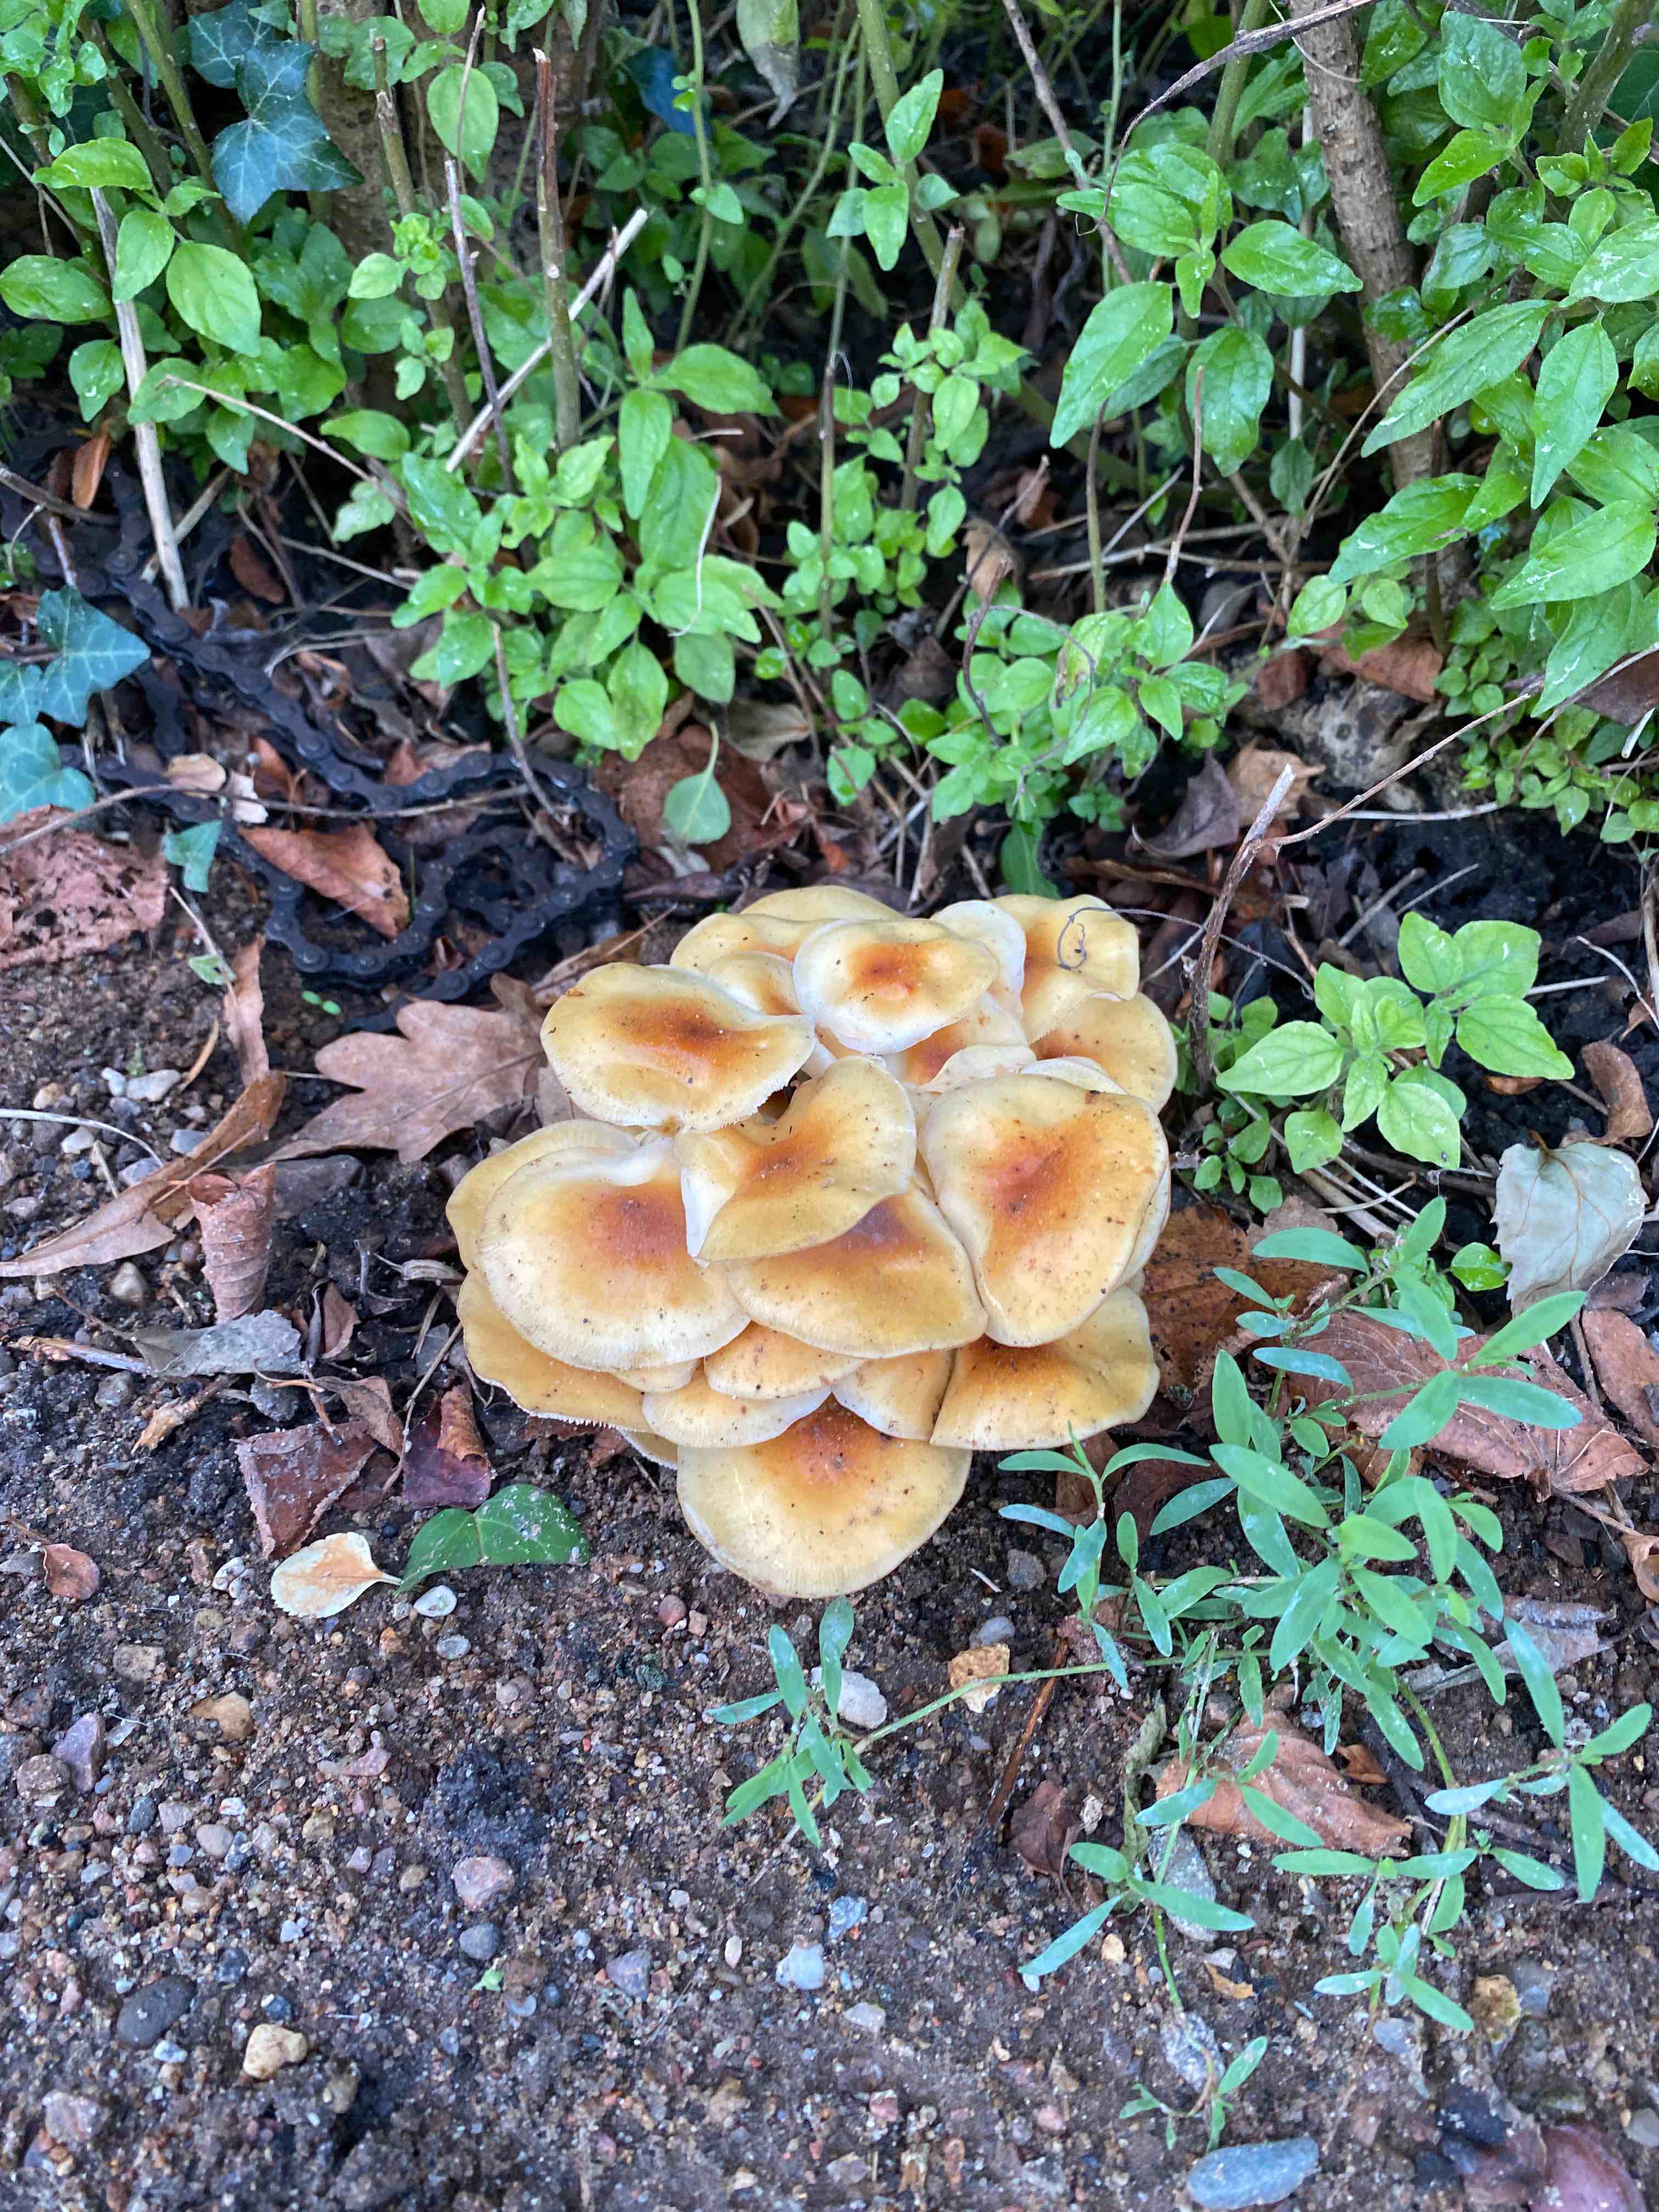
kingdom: Fungi
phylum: Basidiomycota
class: Agaricomycetes
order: Agaricales
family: Physalacriaceae
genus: Flammulina
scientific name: Flammulina
